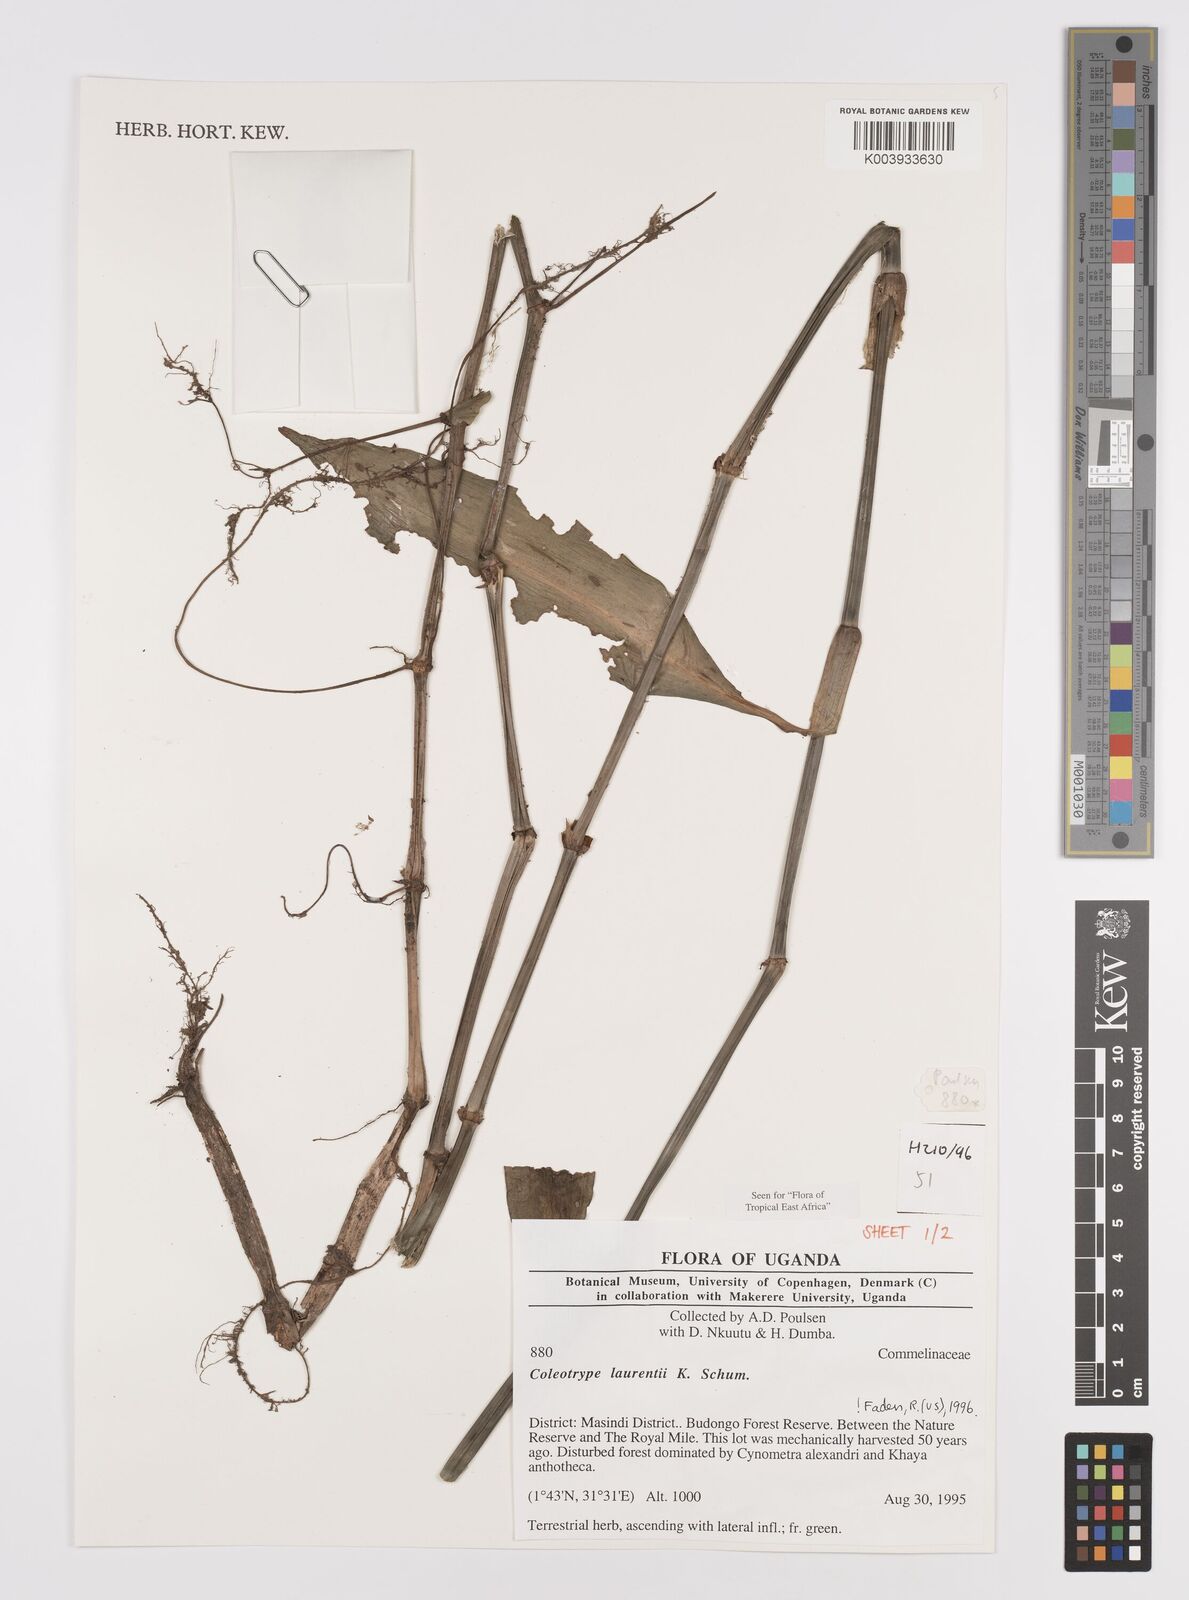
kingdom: Plantae
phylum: Tracheophyta
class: Liliopsida
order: Commelinales
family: Commelinaceae
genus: Coleotrype
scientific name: Coleotrype laurentii
